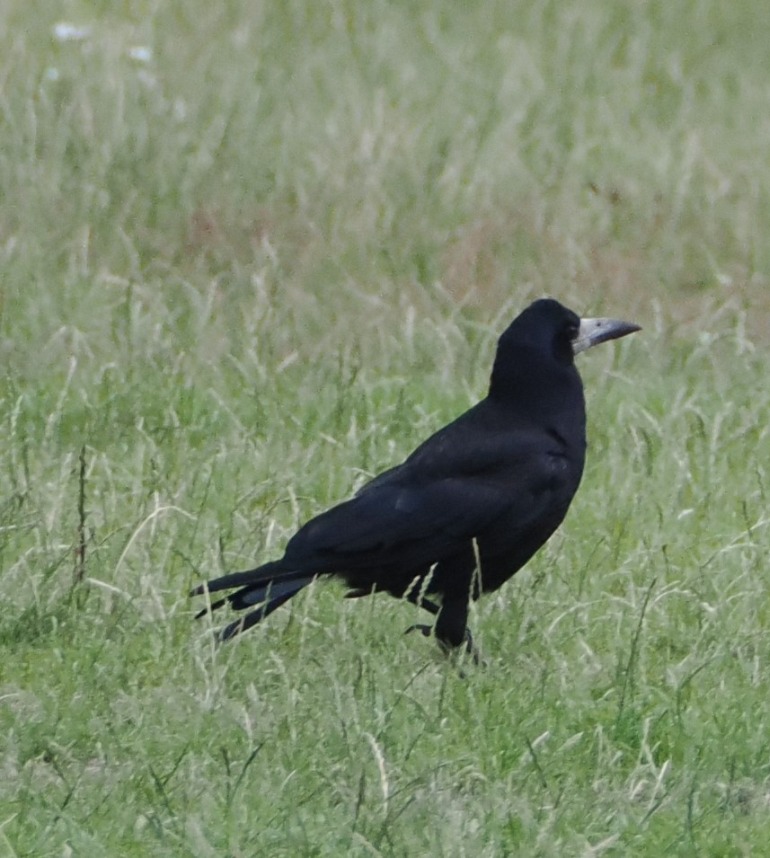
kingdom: Animalia
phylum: Chordata
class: Aves
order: Passeriformes
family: Corvidae
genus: Corvus
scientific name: Corvus frugilegus
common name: Råge
